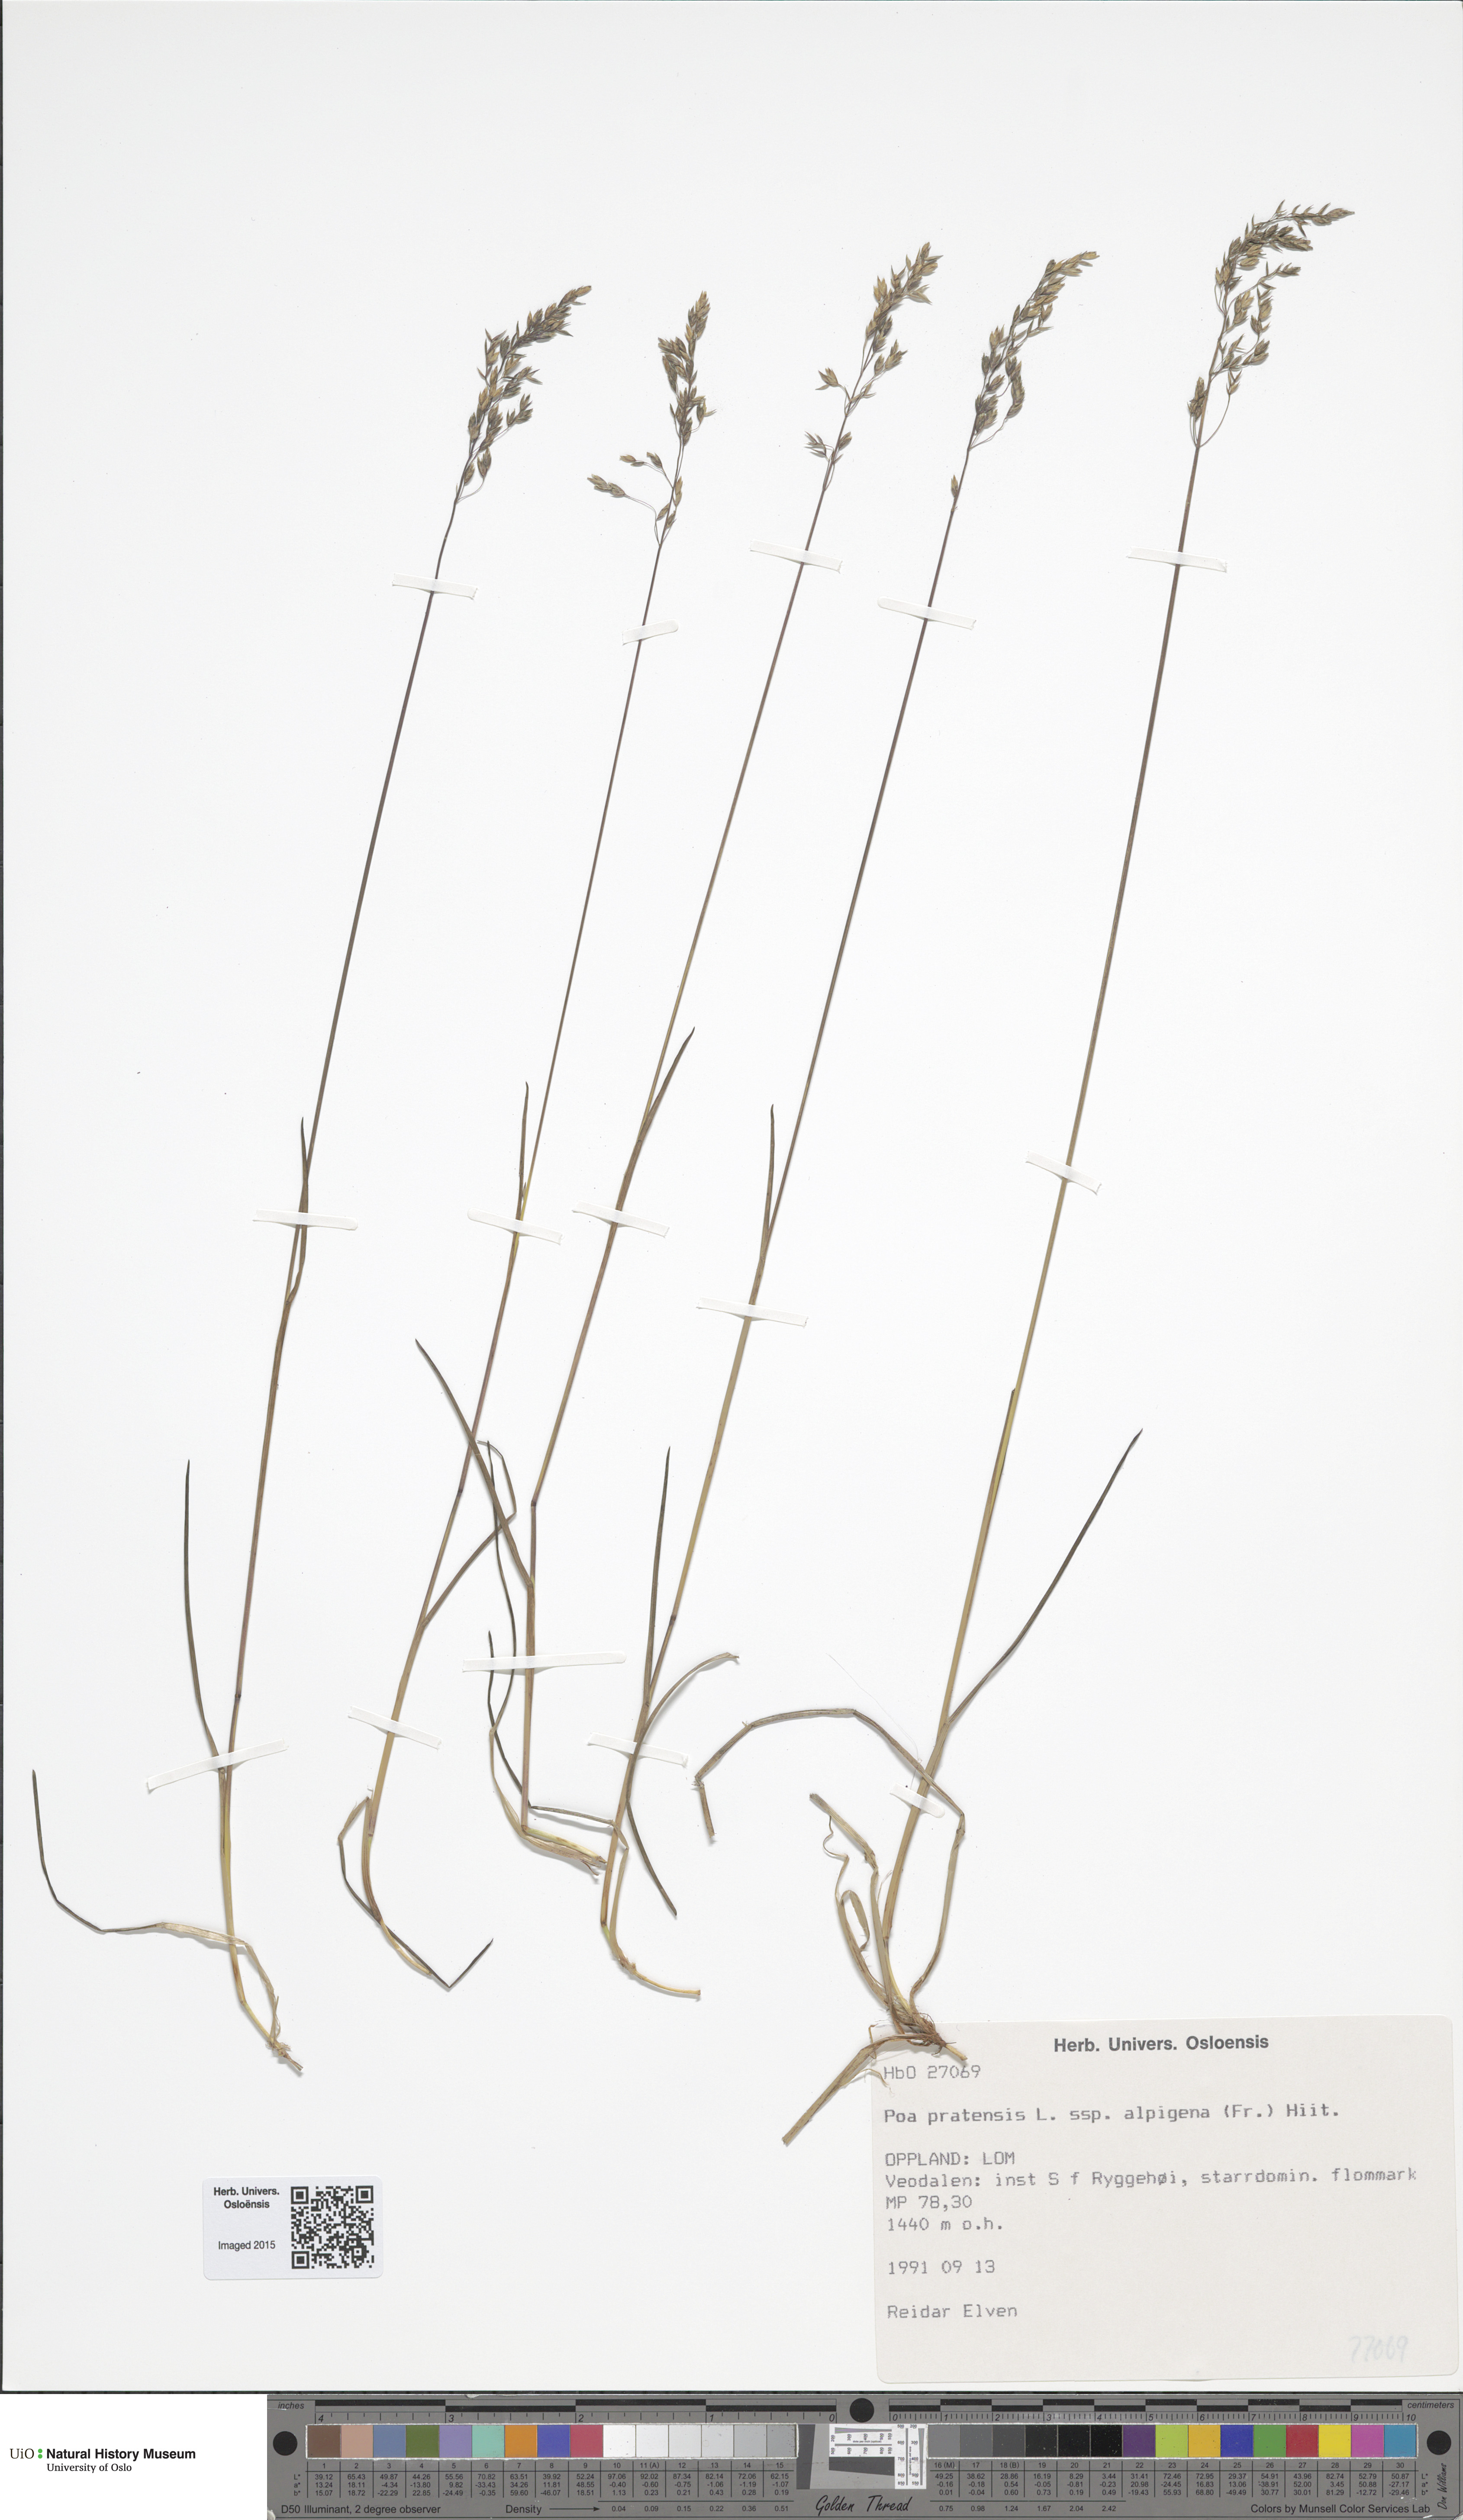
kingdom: Plantae
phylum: Tracheophyta
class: Liliopsida
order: Poales
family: Poaceae
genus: Poa
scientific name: Poa alpigena
